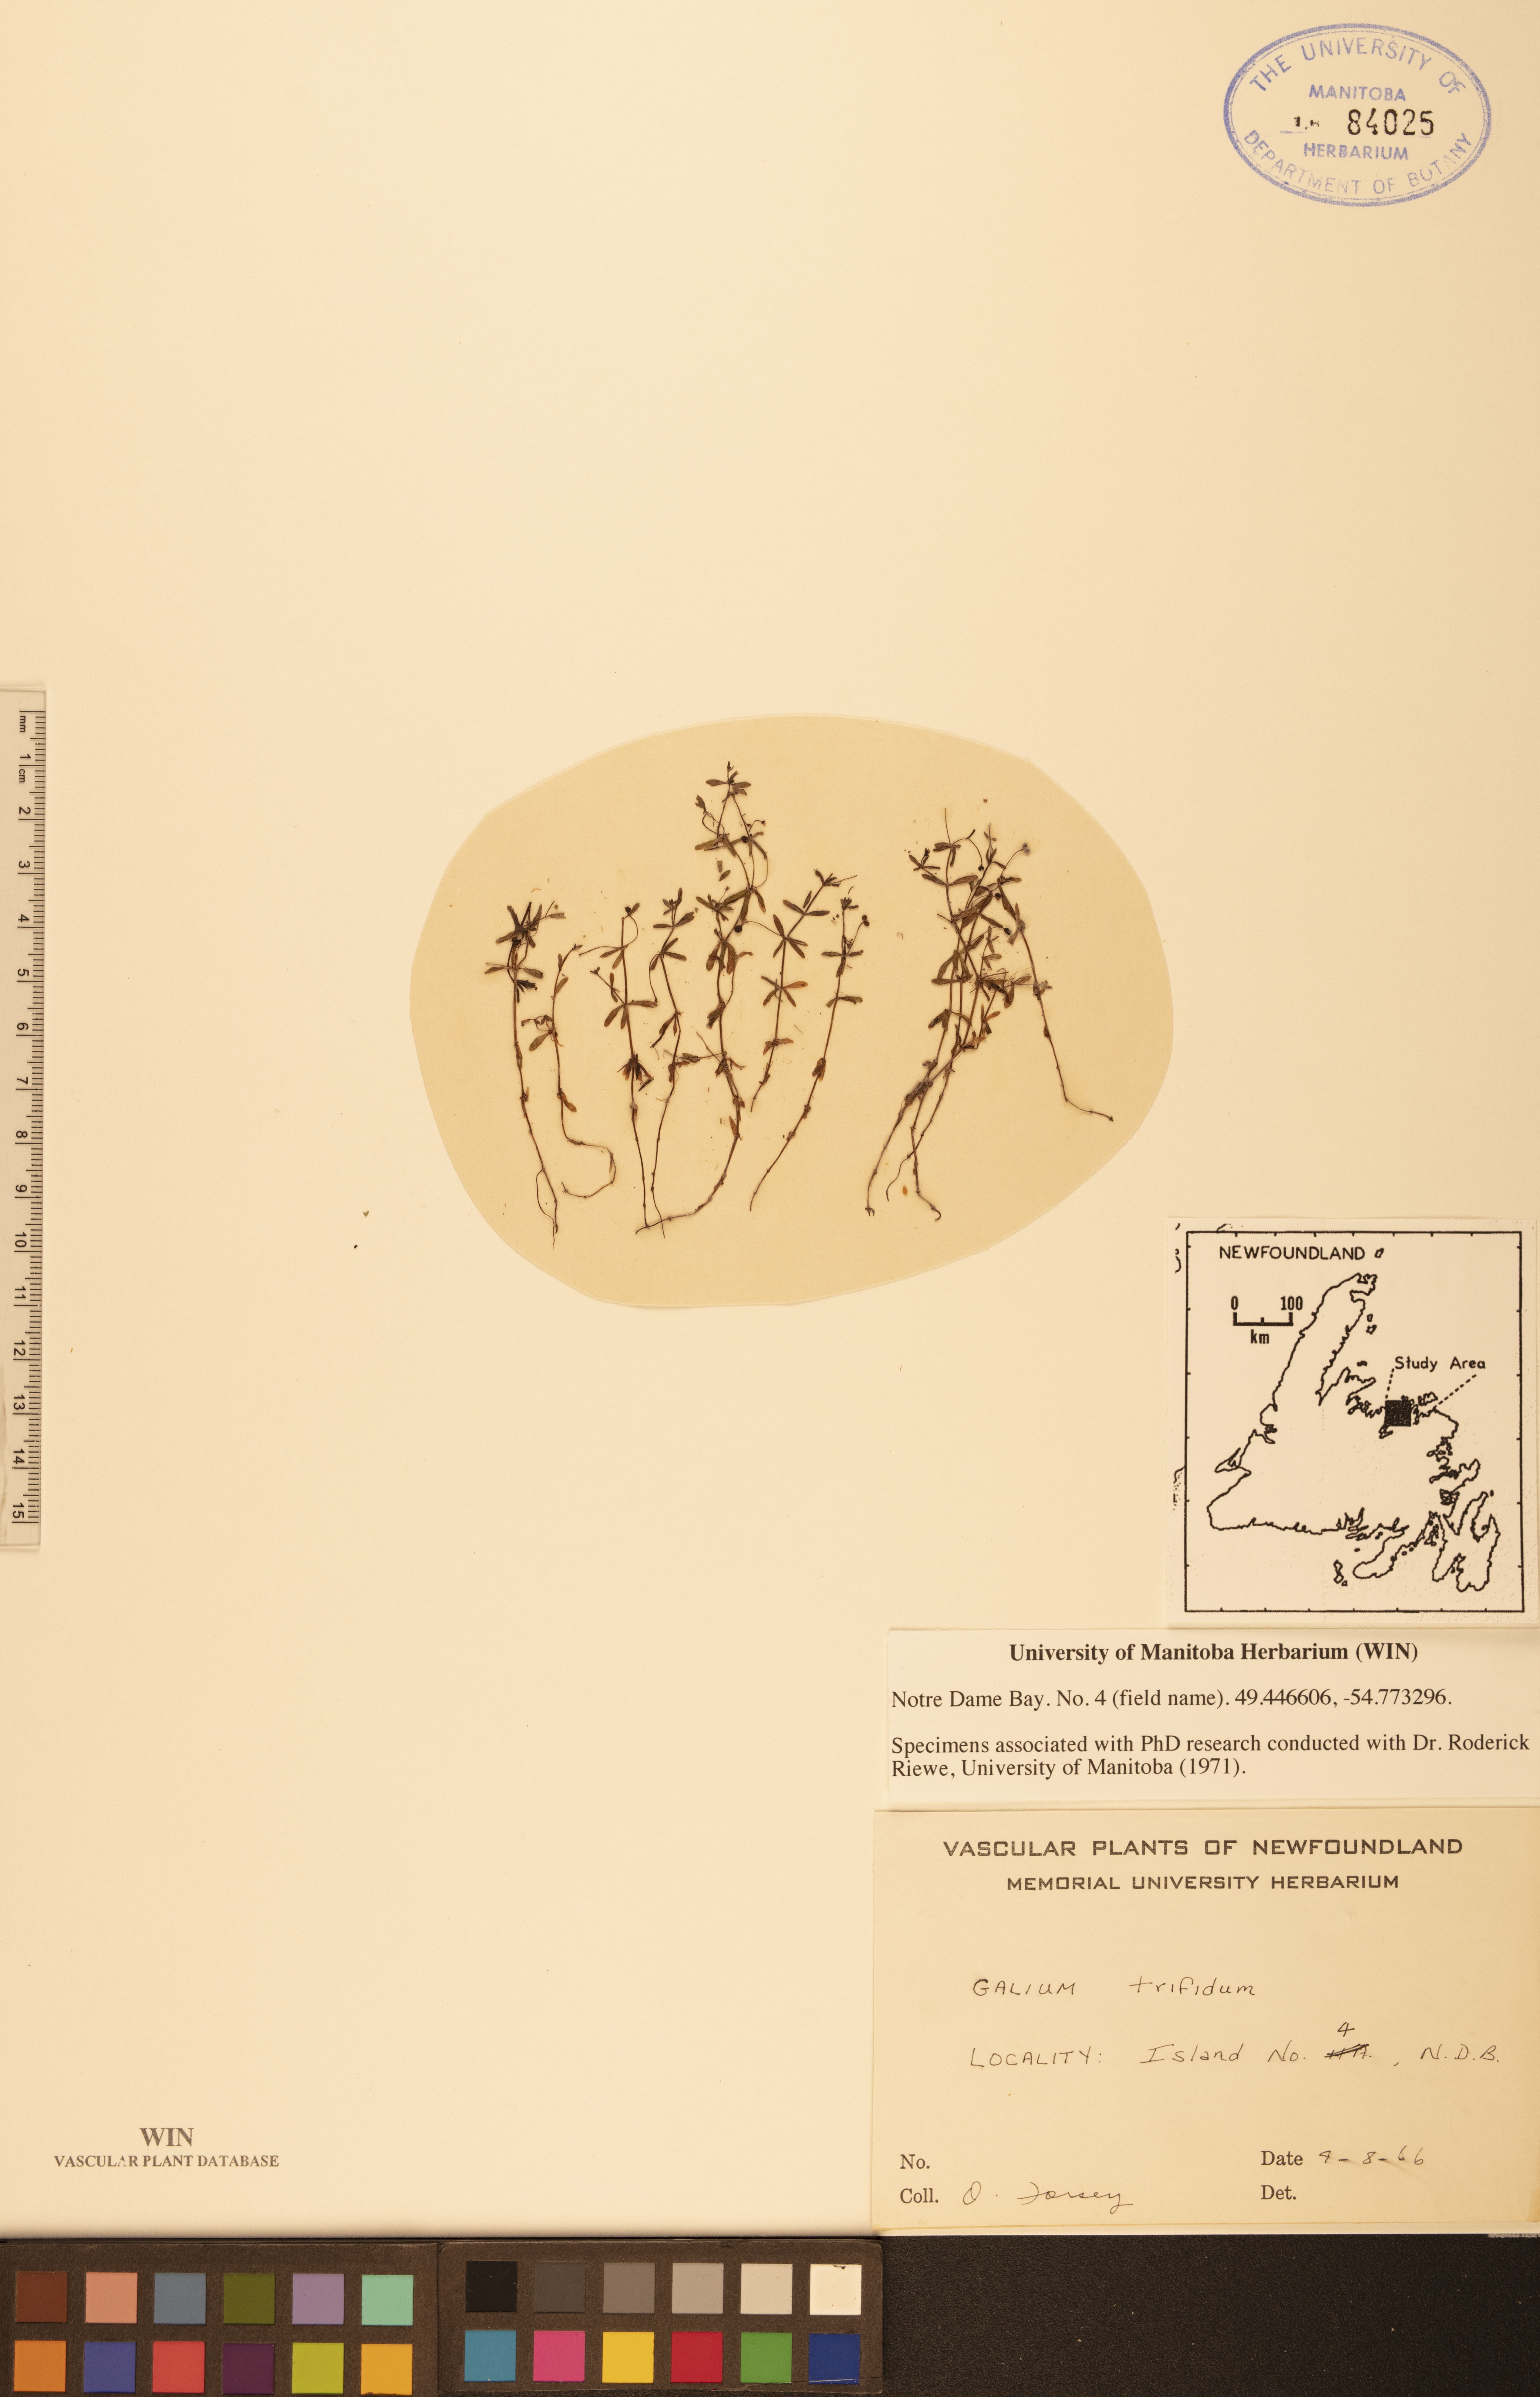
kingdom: Plantae
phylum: Tracheophyta
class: Magnoliopsida
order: Gentianales
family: Rubiaceae
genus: Galium
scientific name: Galium trifidum
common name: Small bedstraw
